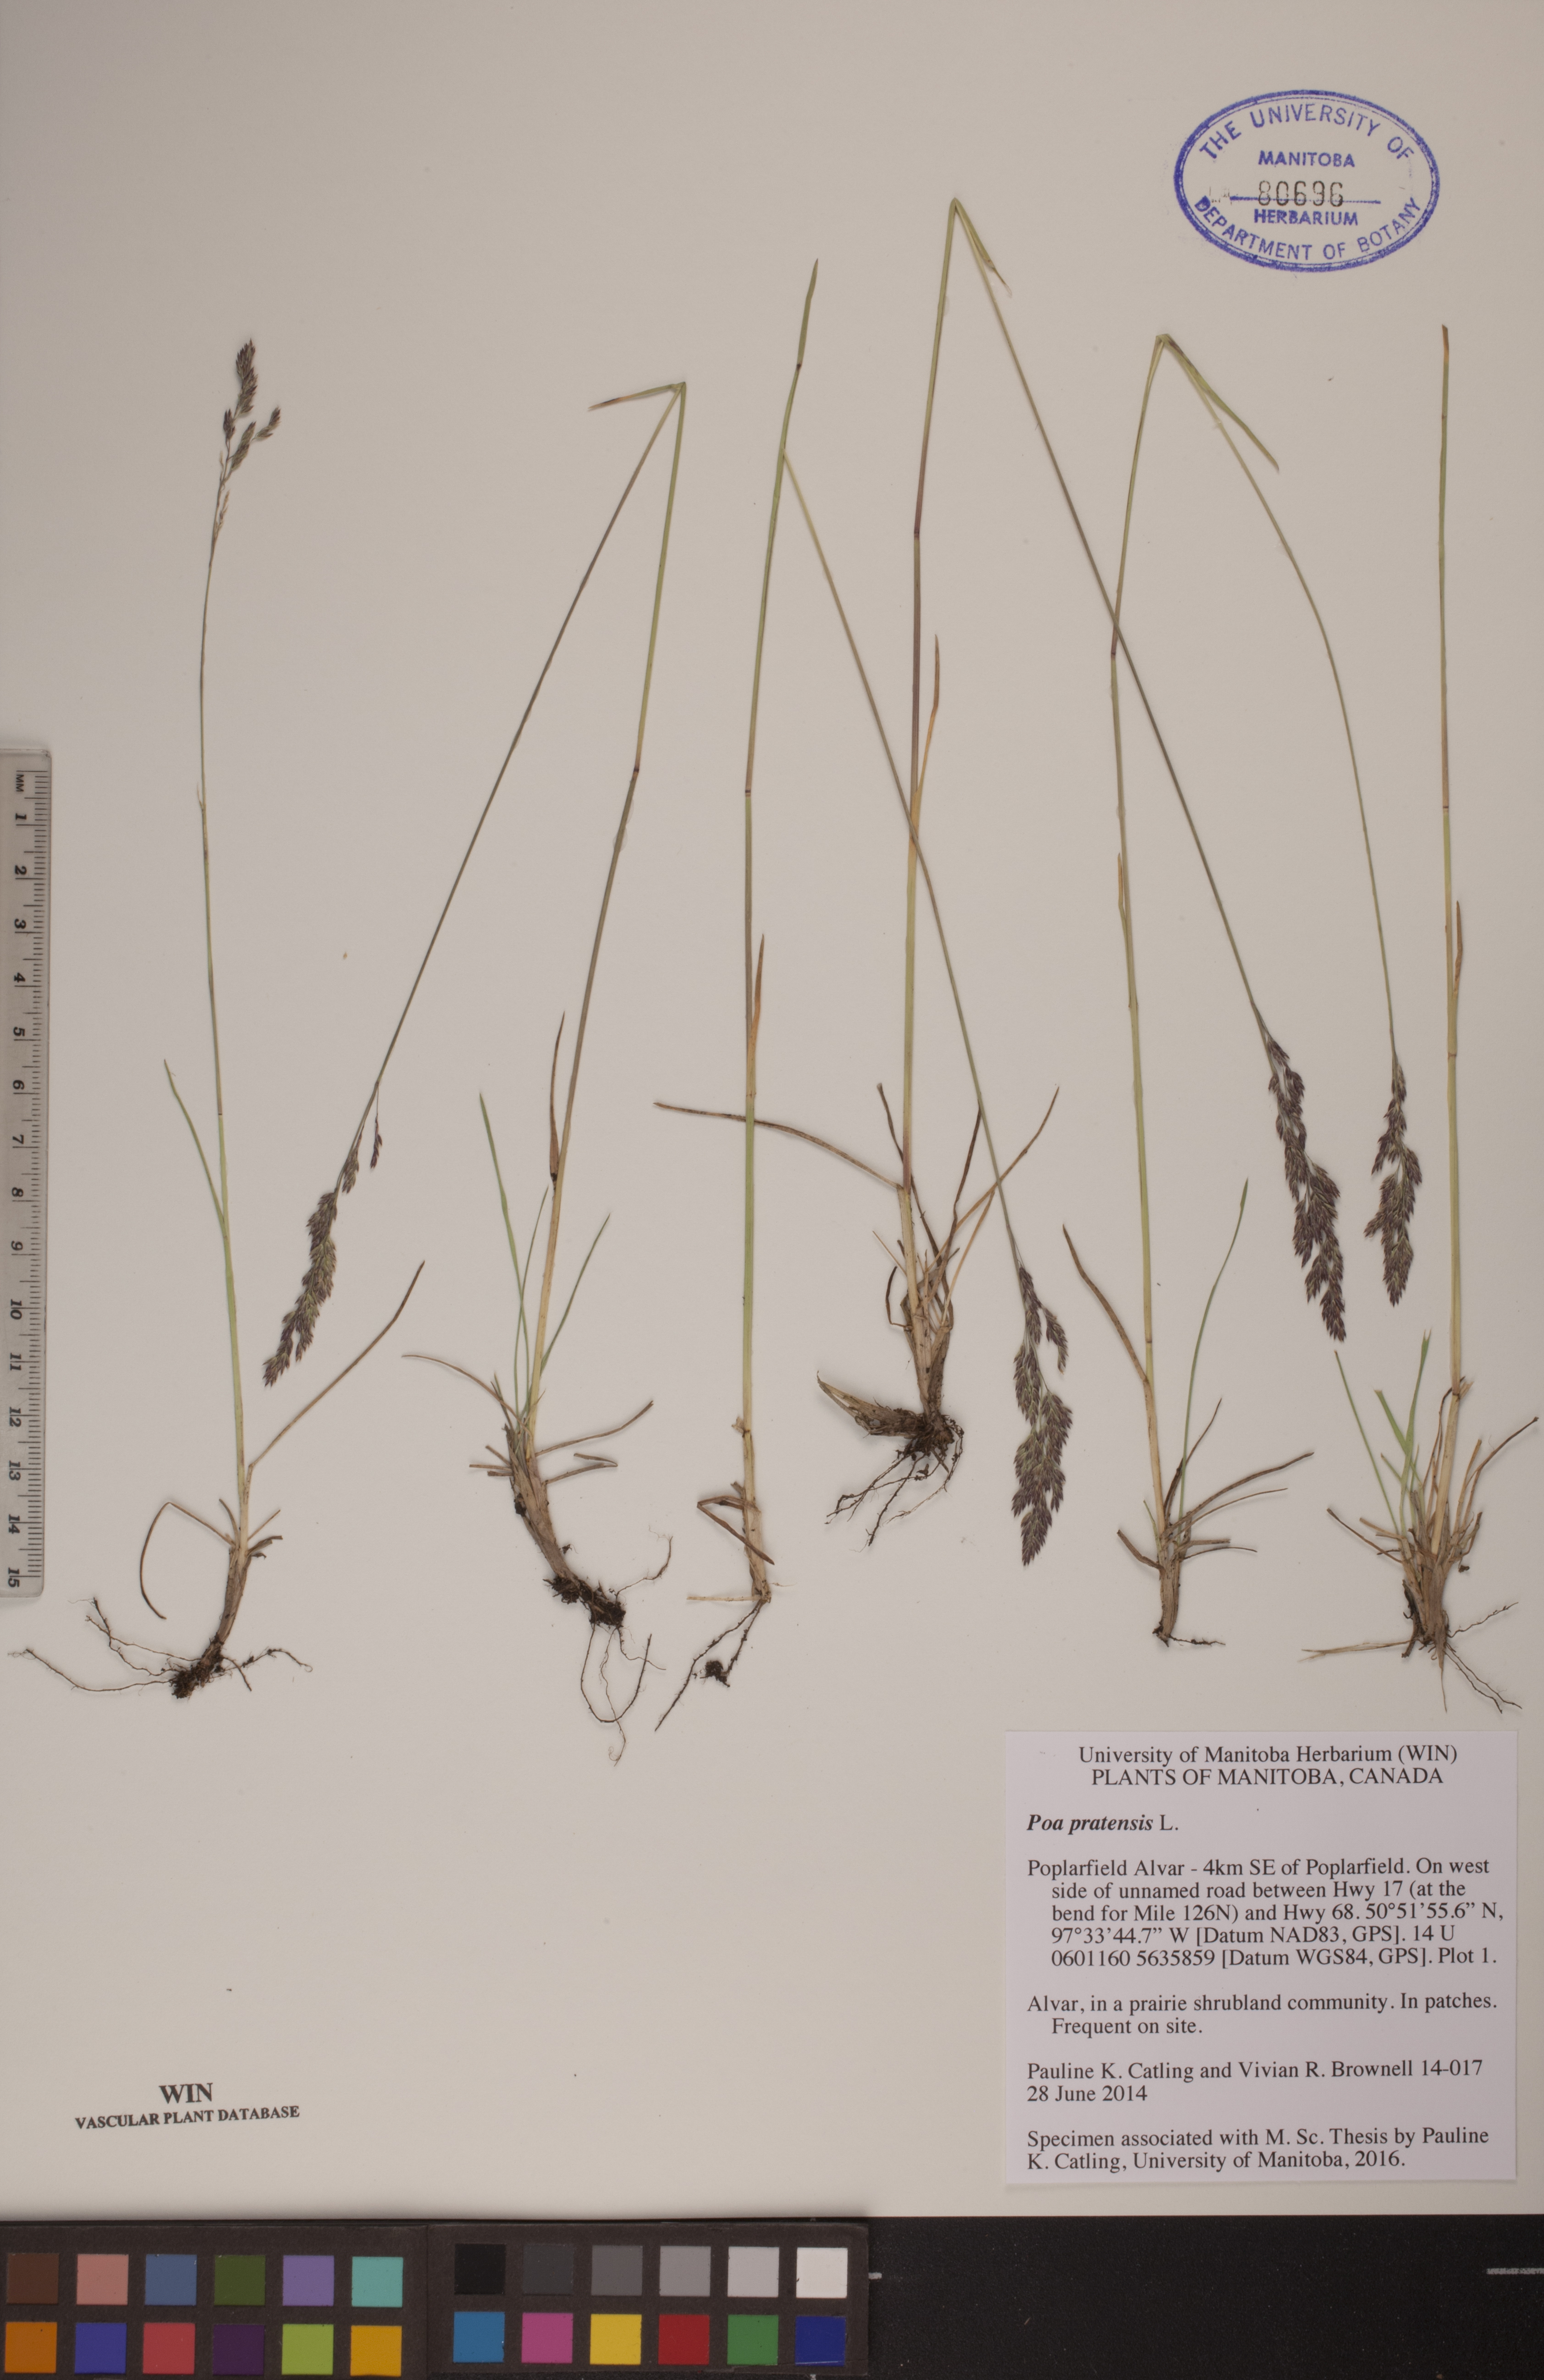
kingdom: Plantae
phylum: Tracheophyta
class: Liliopsida
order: Poales
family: Poaceae
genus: Poa
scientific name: Poa pratensis
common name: Kentucky bluegrass
